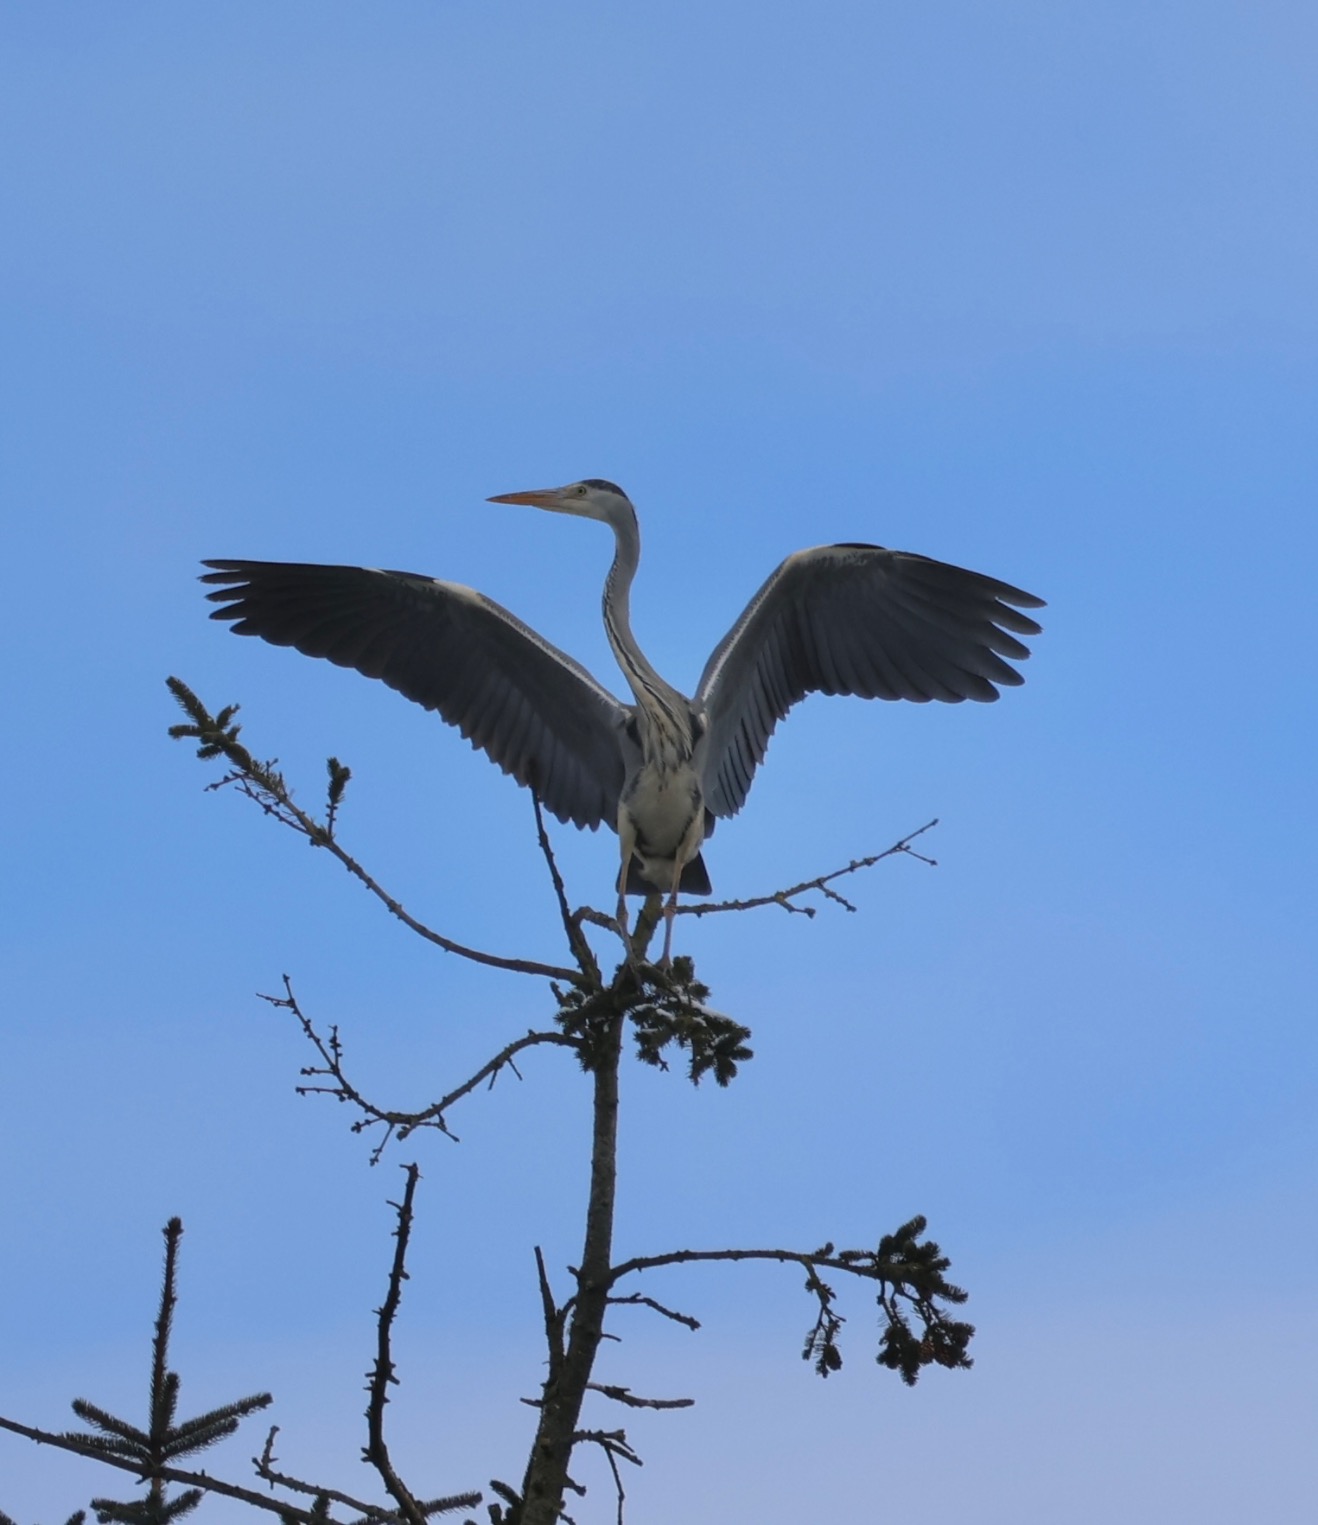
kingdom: Animalia
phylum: Chordata
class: Aves
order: Pelecaniformes
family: Ardeidae
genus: Ardea
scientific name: Ardea cinerea
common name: Fiskehejre
